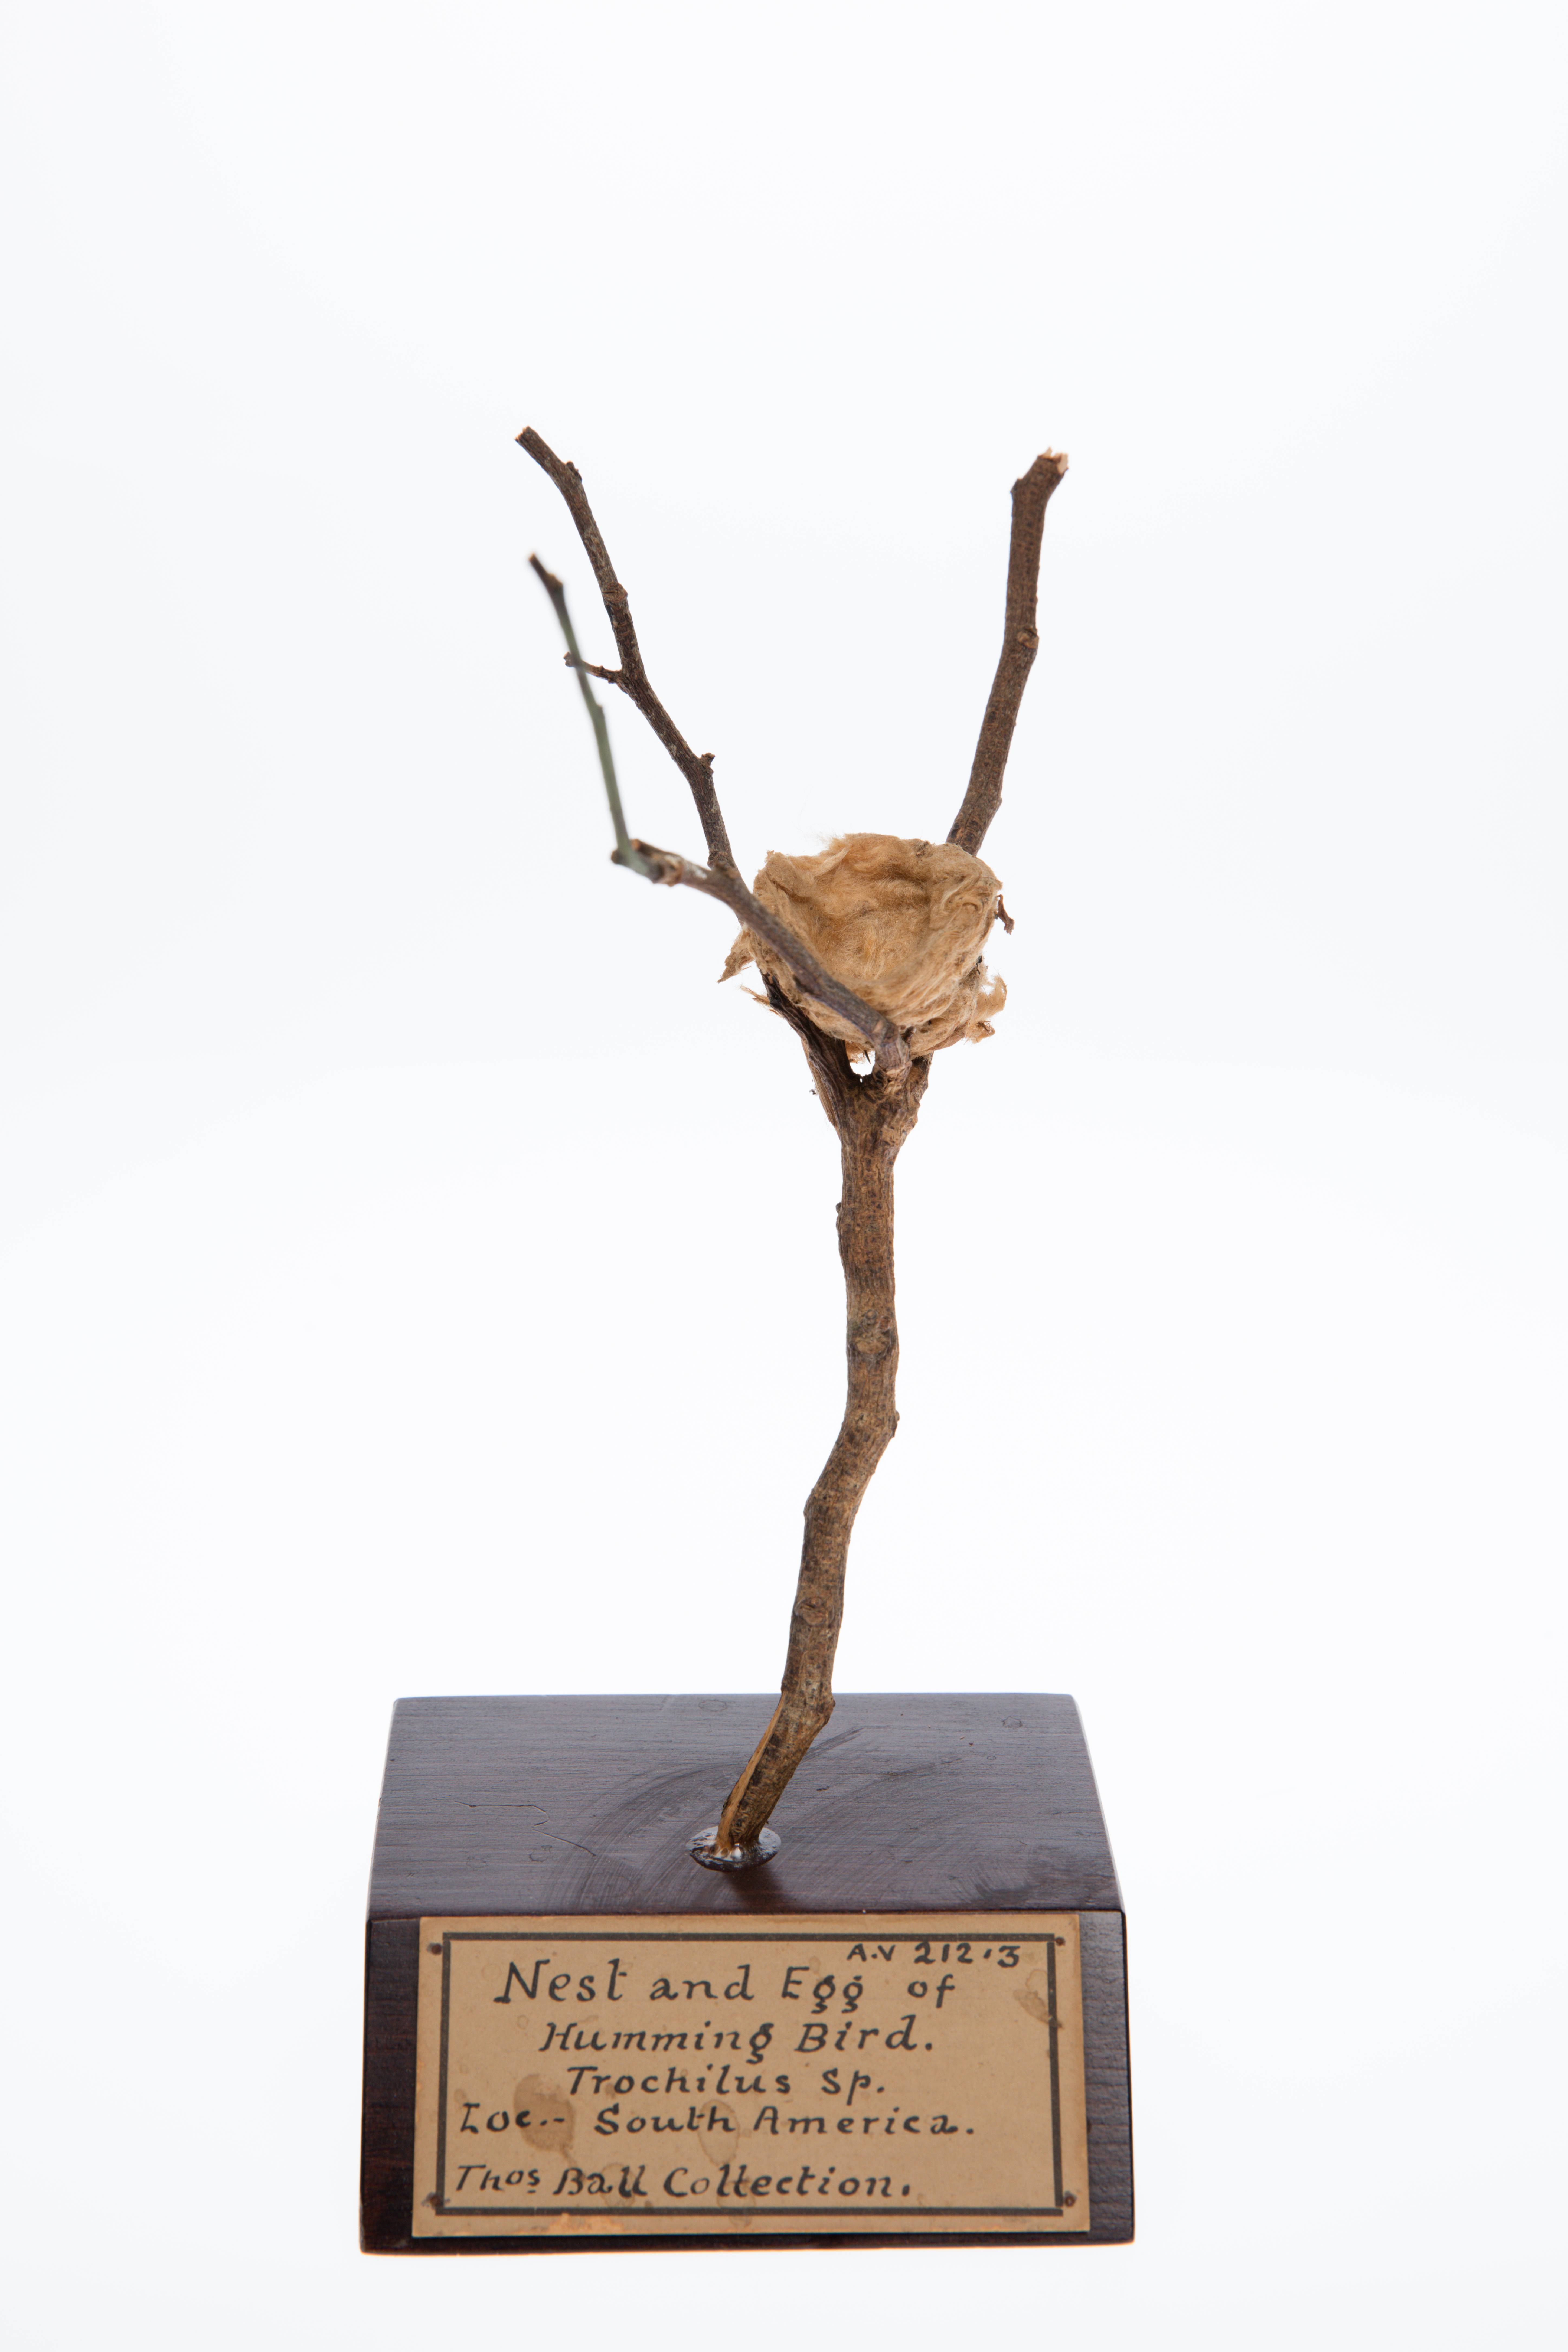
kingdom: Animalia
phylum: Chordata
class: Aves
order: Apodiformes
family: Trochilidae
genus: Trochilus
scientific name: Trochilus
